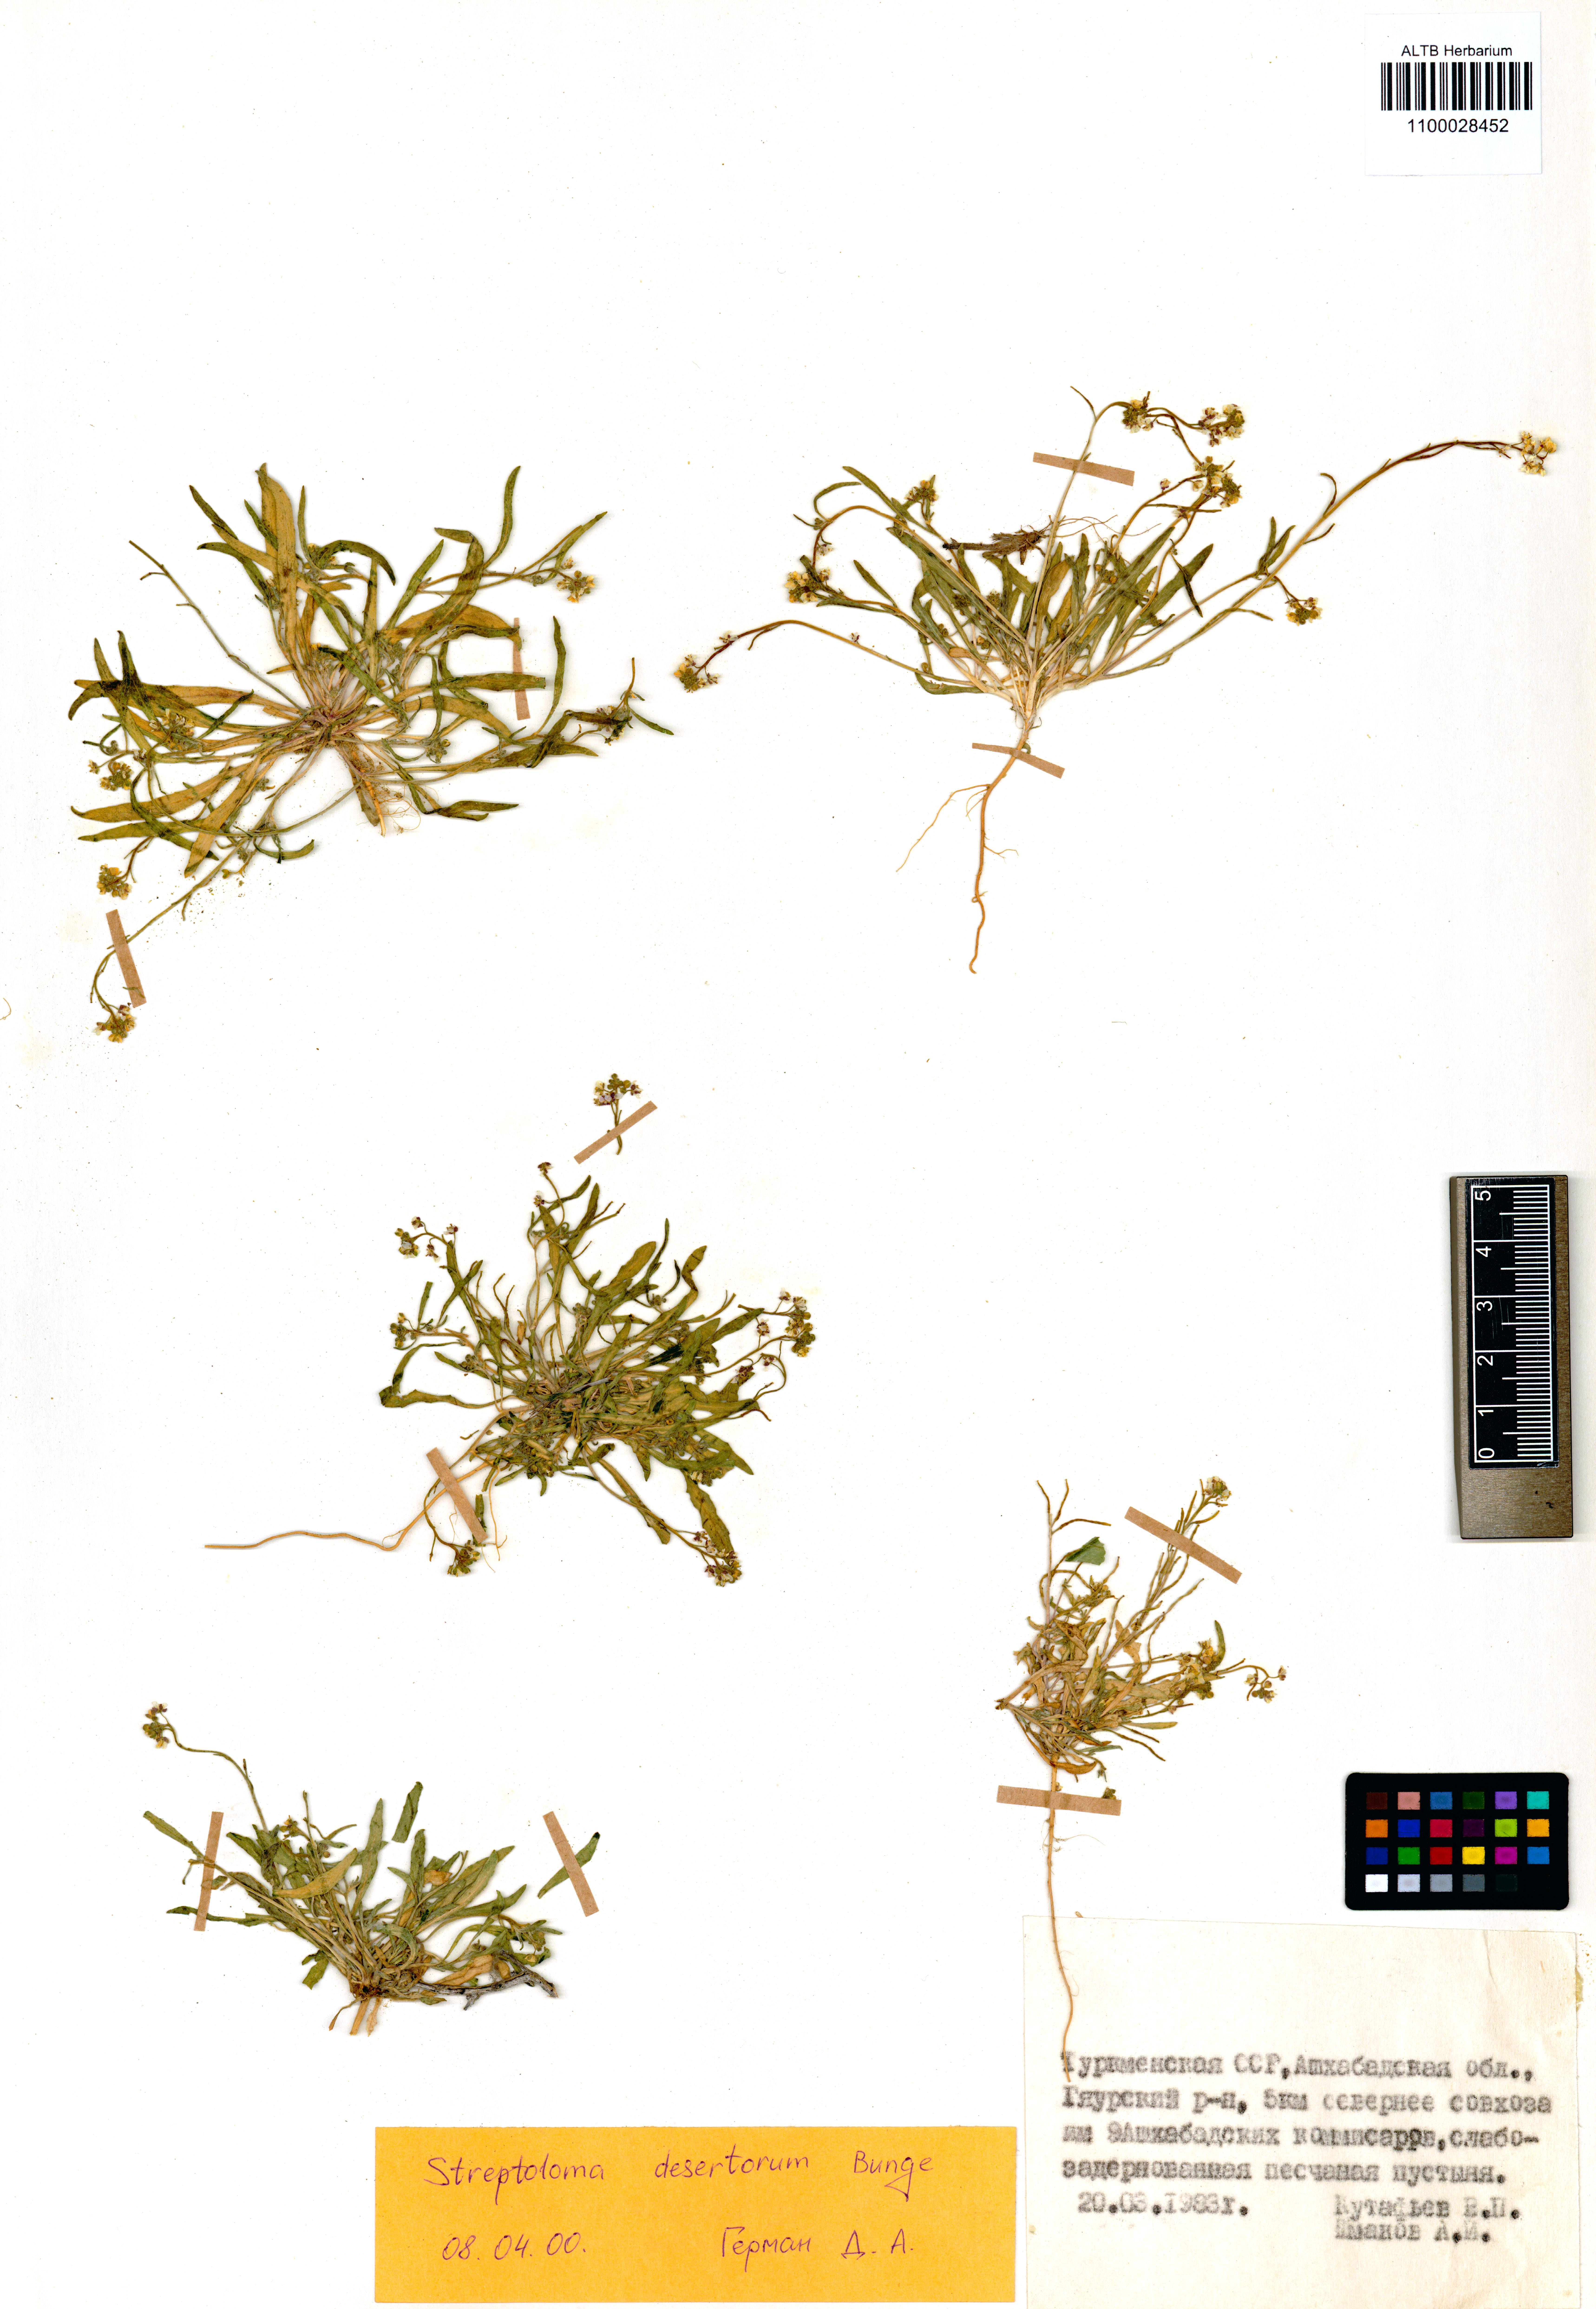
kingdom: Plantae
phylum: Tracheophyta
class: Magnoliopsida
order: Brassicales
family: Brassicaceae
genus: Streptoloma
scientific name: Streptoloma desertorum
